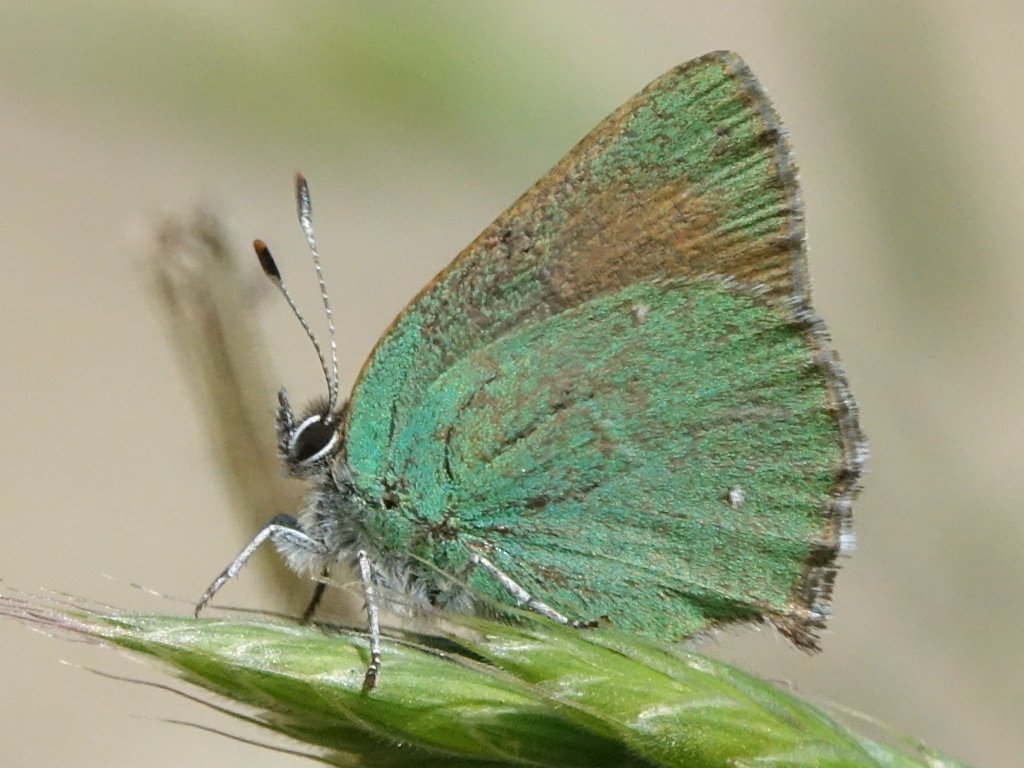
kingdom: Animalia
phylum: Arthropoda
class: Insecta
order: Lepidoptera
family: Lycaenidae
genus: Callophrys
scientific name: Callophrys dumetorum
